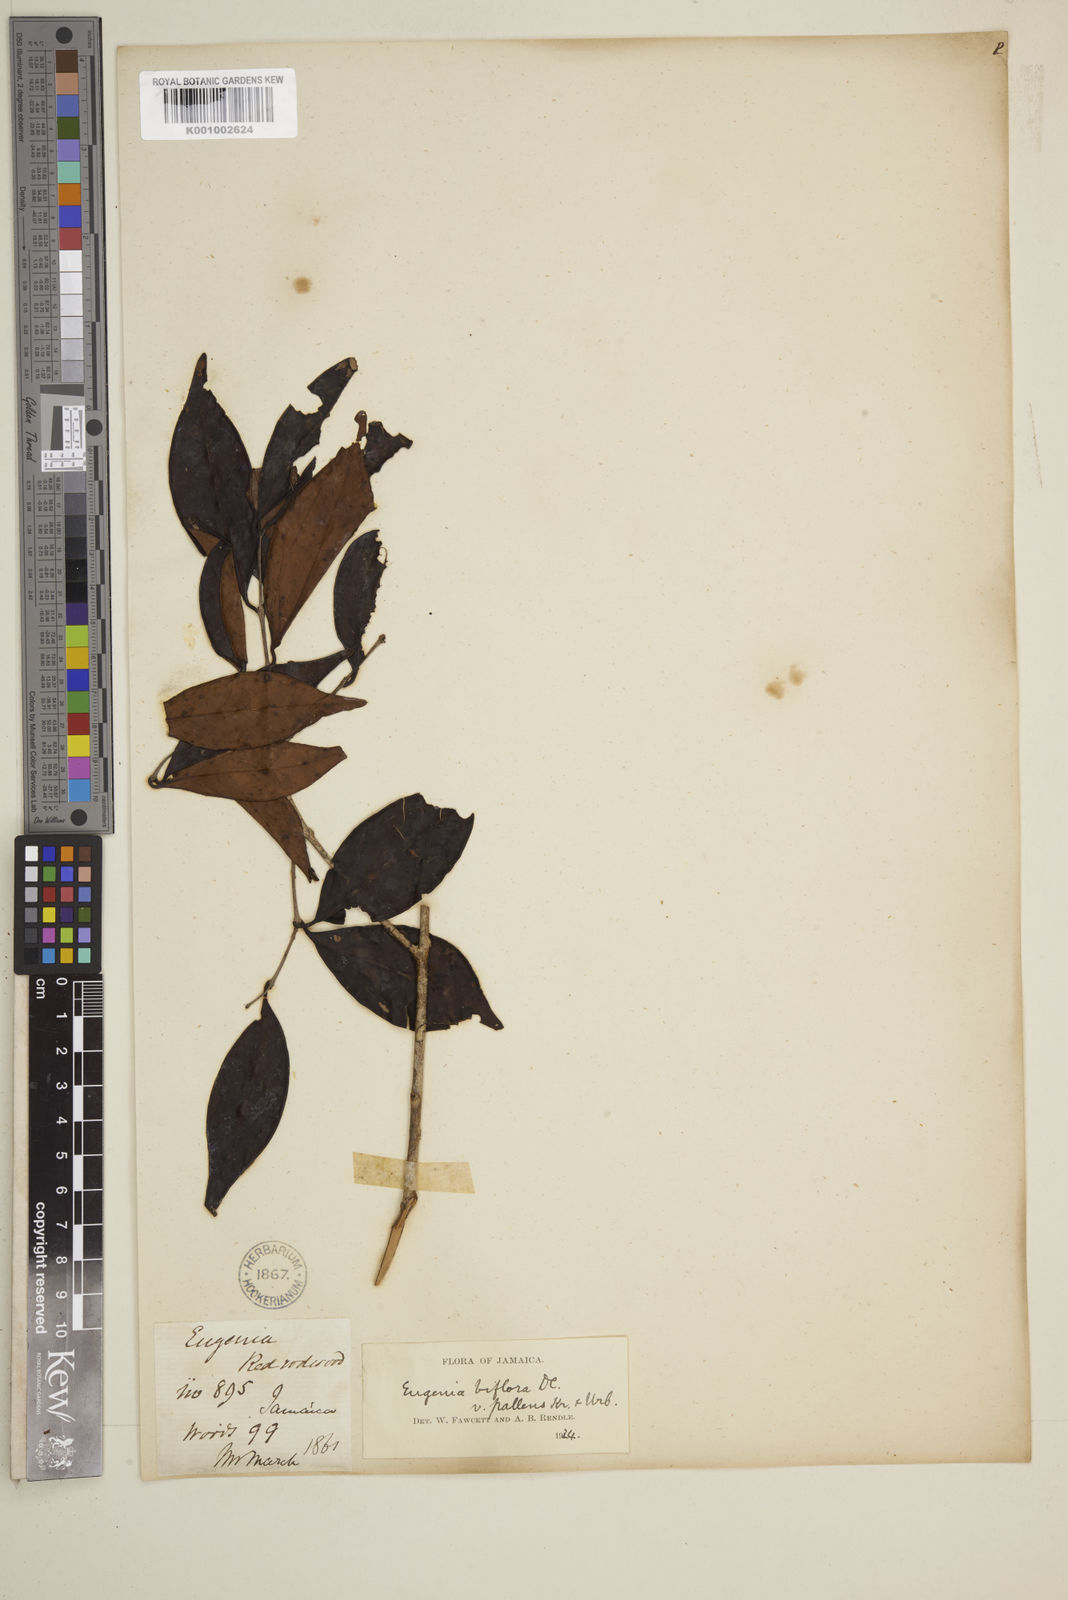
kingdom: Plantae
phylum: Tracheophyta
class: Magnoliopsida
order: Myrtales
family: Myrtaceae
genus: Myrcia
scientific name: Myrcia neopallens
